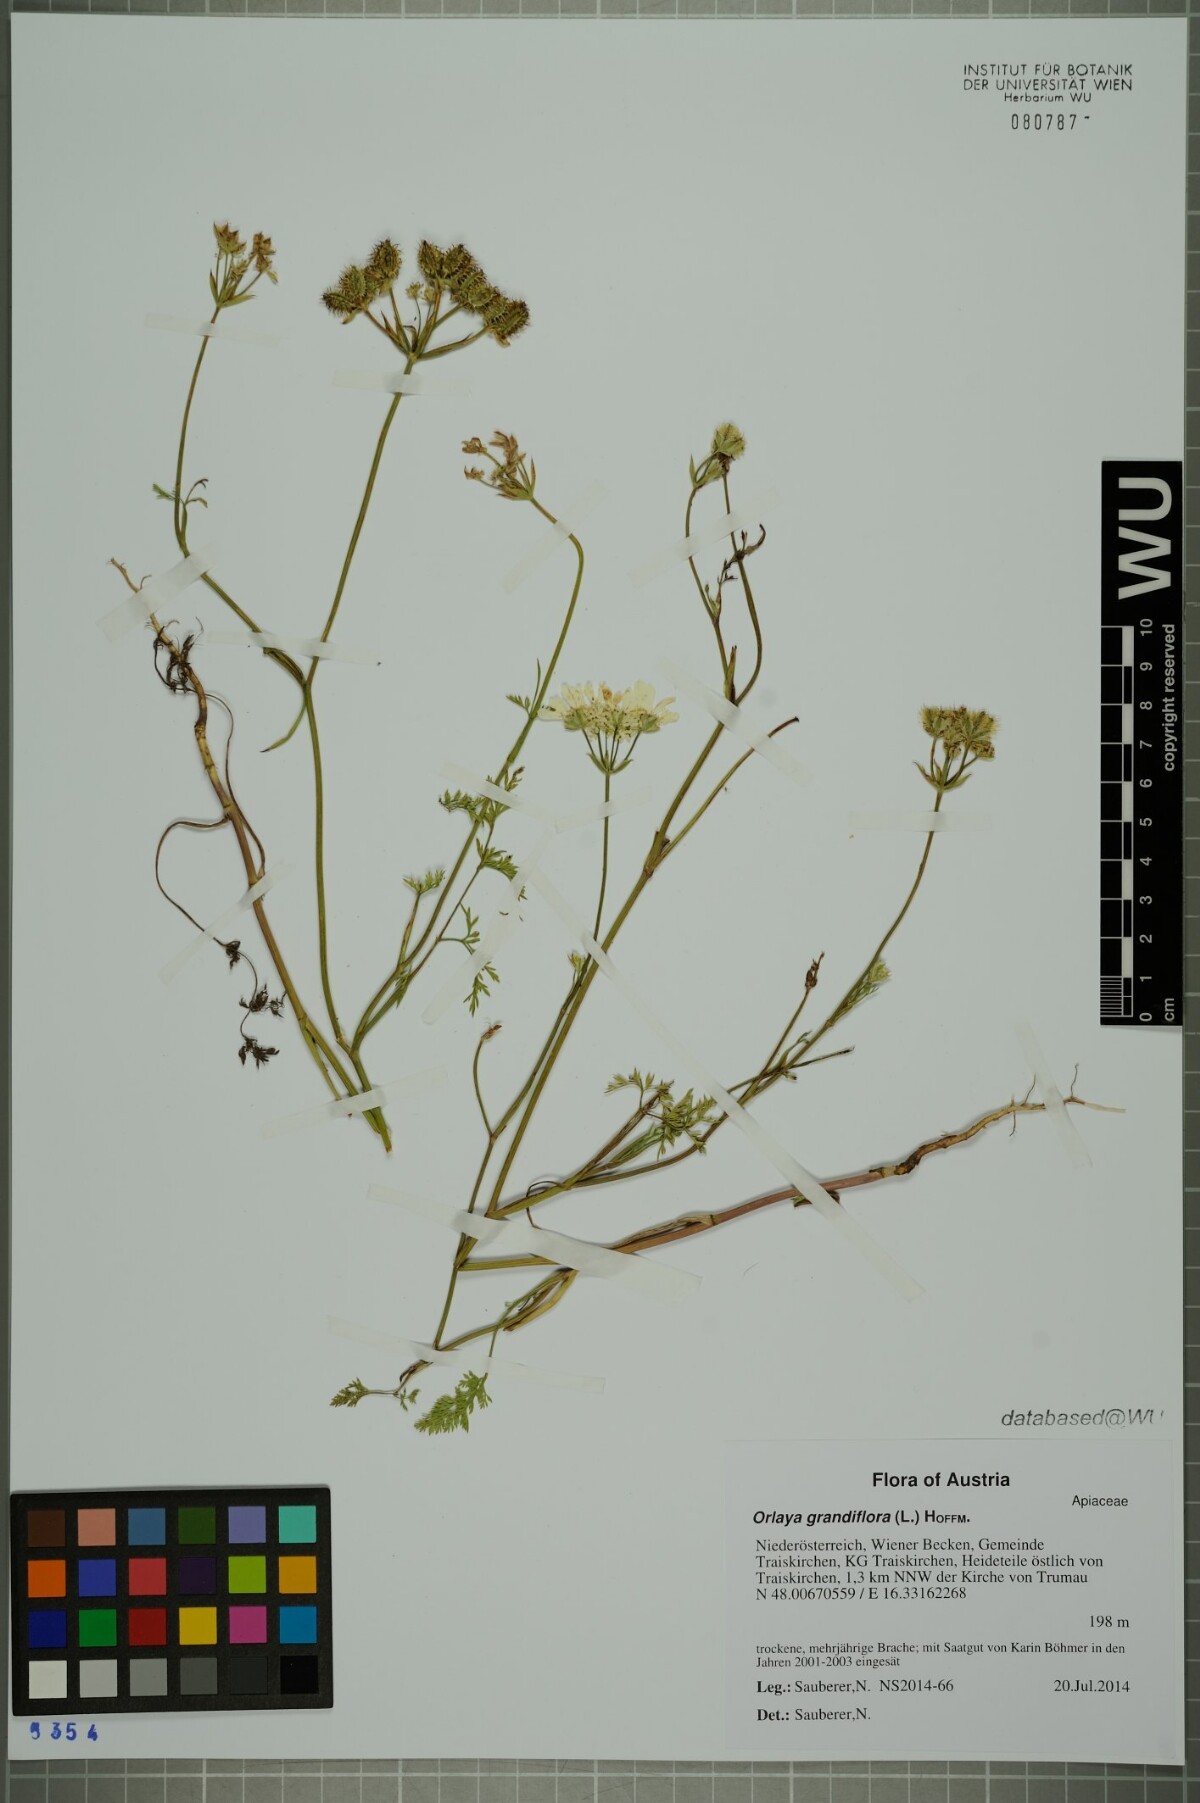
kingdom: Plantae
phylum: Tracheophyta
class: Magnoliopsida
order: Apiales
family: Apiaceae
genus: Orlaya
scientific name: Orlaya grandiflora
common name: White lace flower
